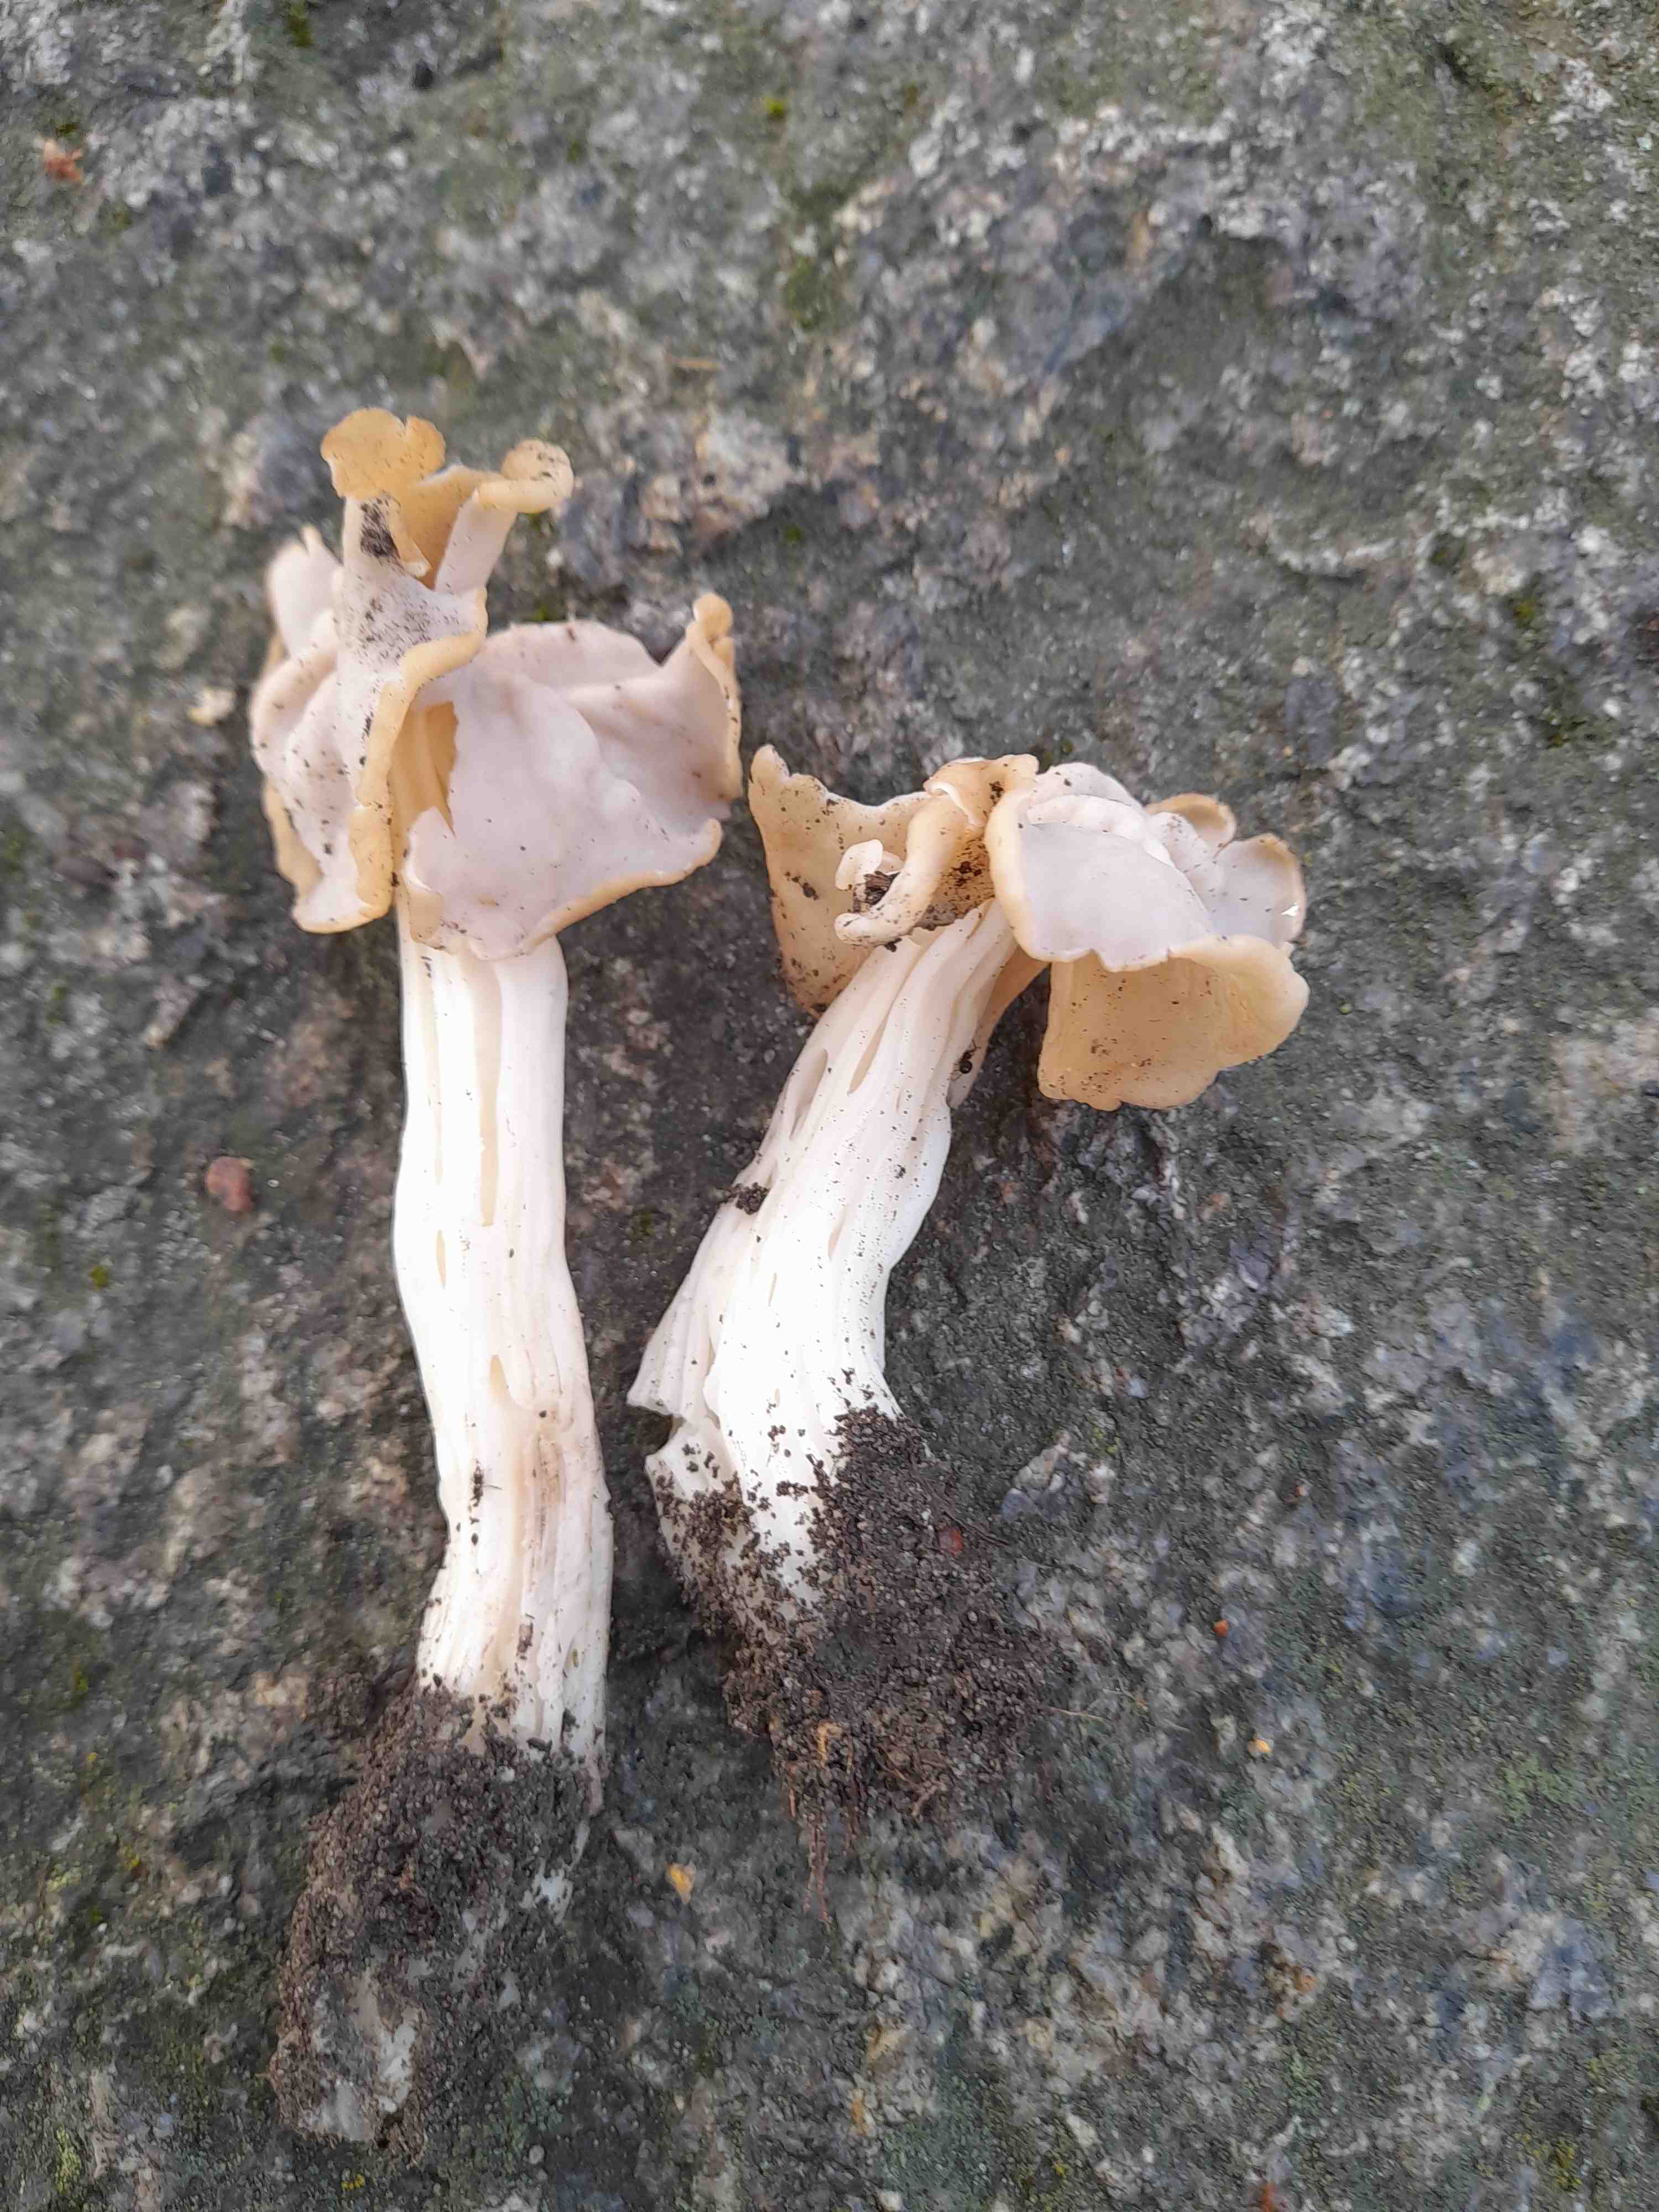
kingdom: Fungi
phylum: Ascomycota
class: Pezizomycetes
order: Pezizales
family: Helvellaceae
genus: Helvella
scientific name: Helvella crispa
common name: kruset foldhat
